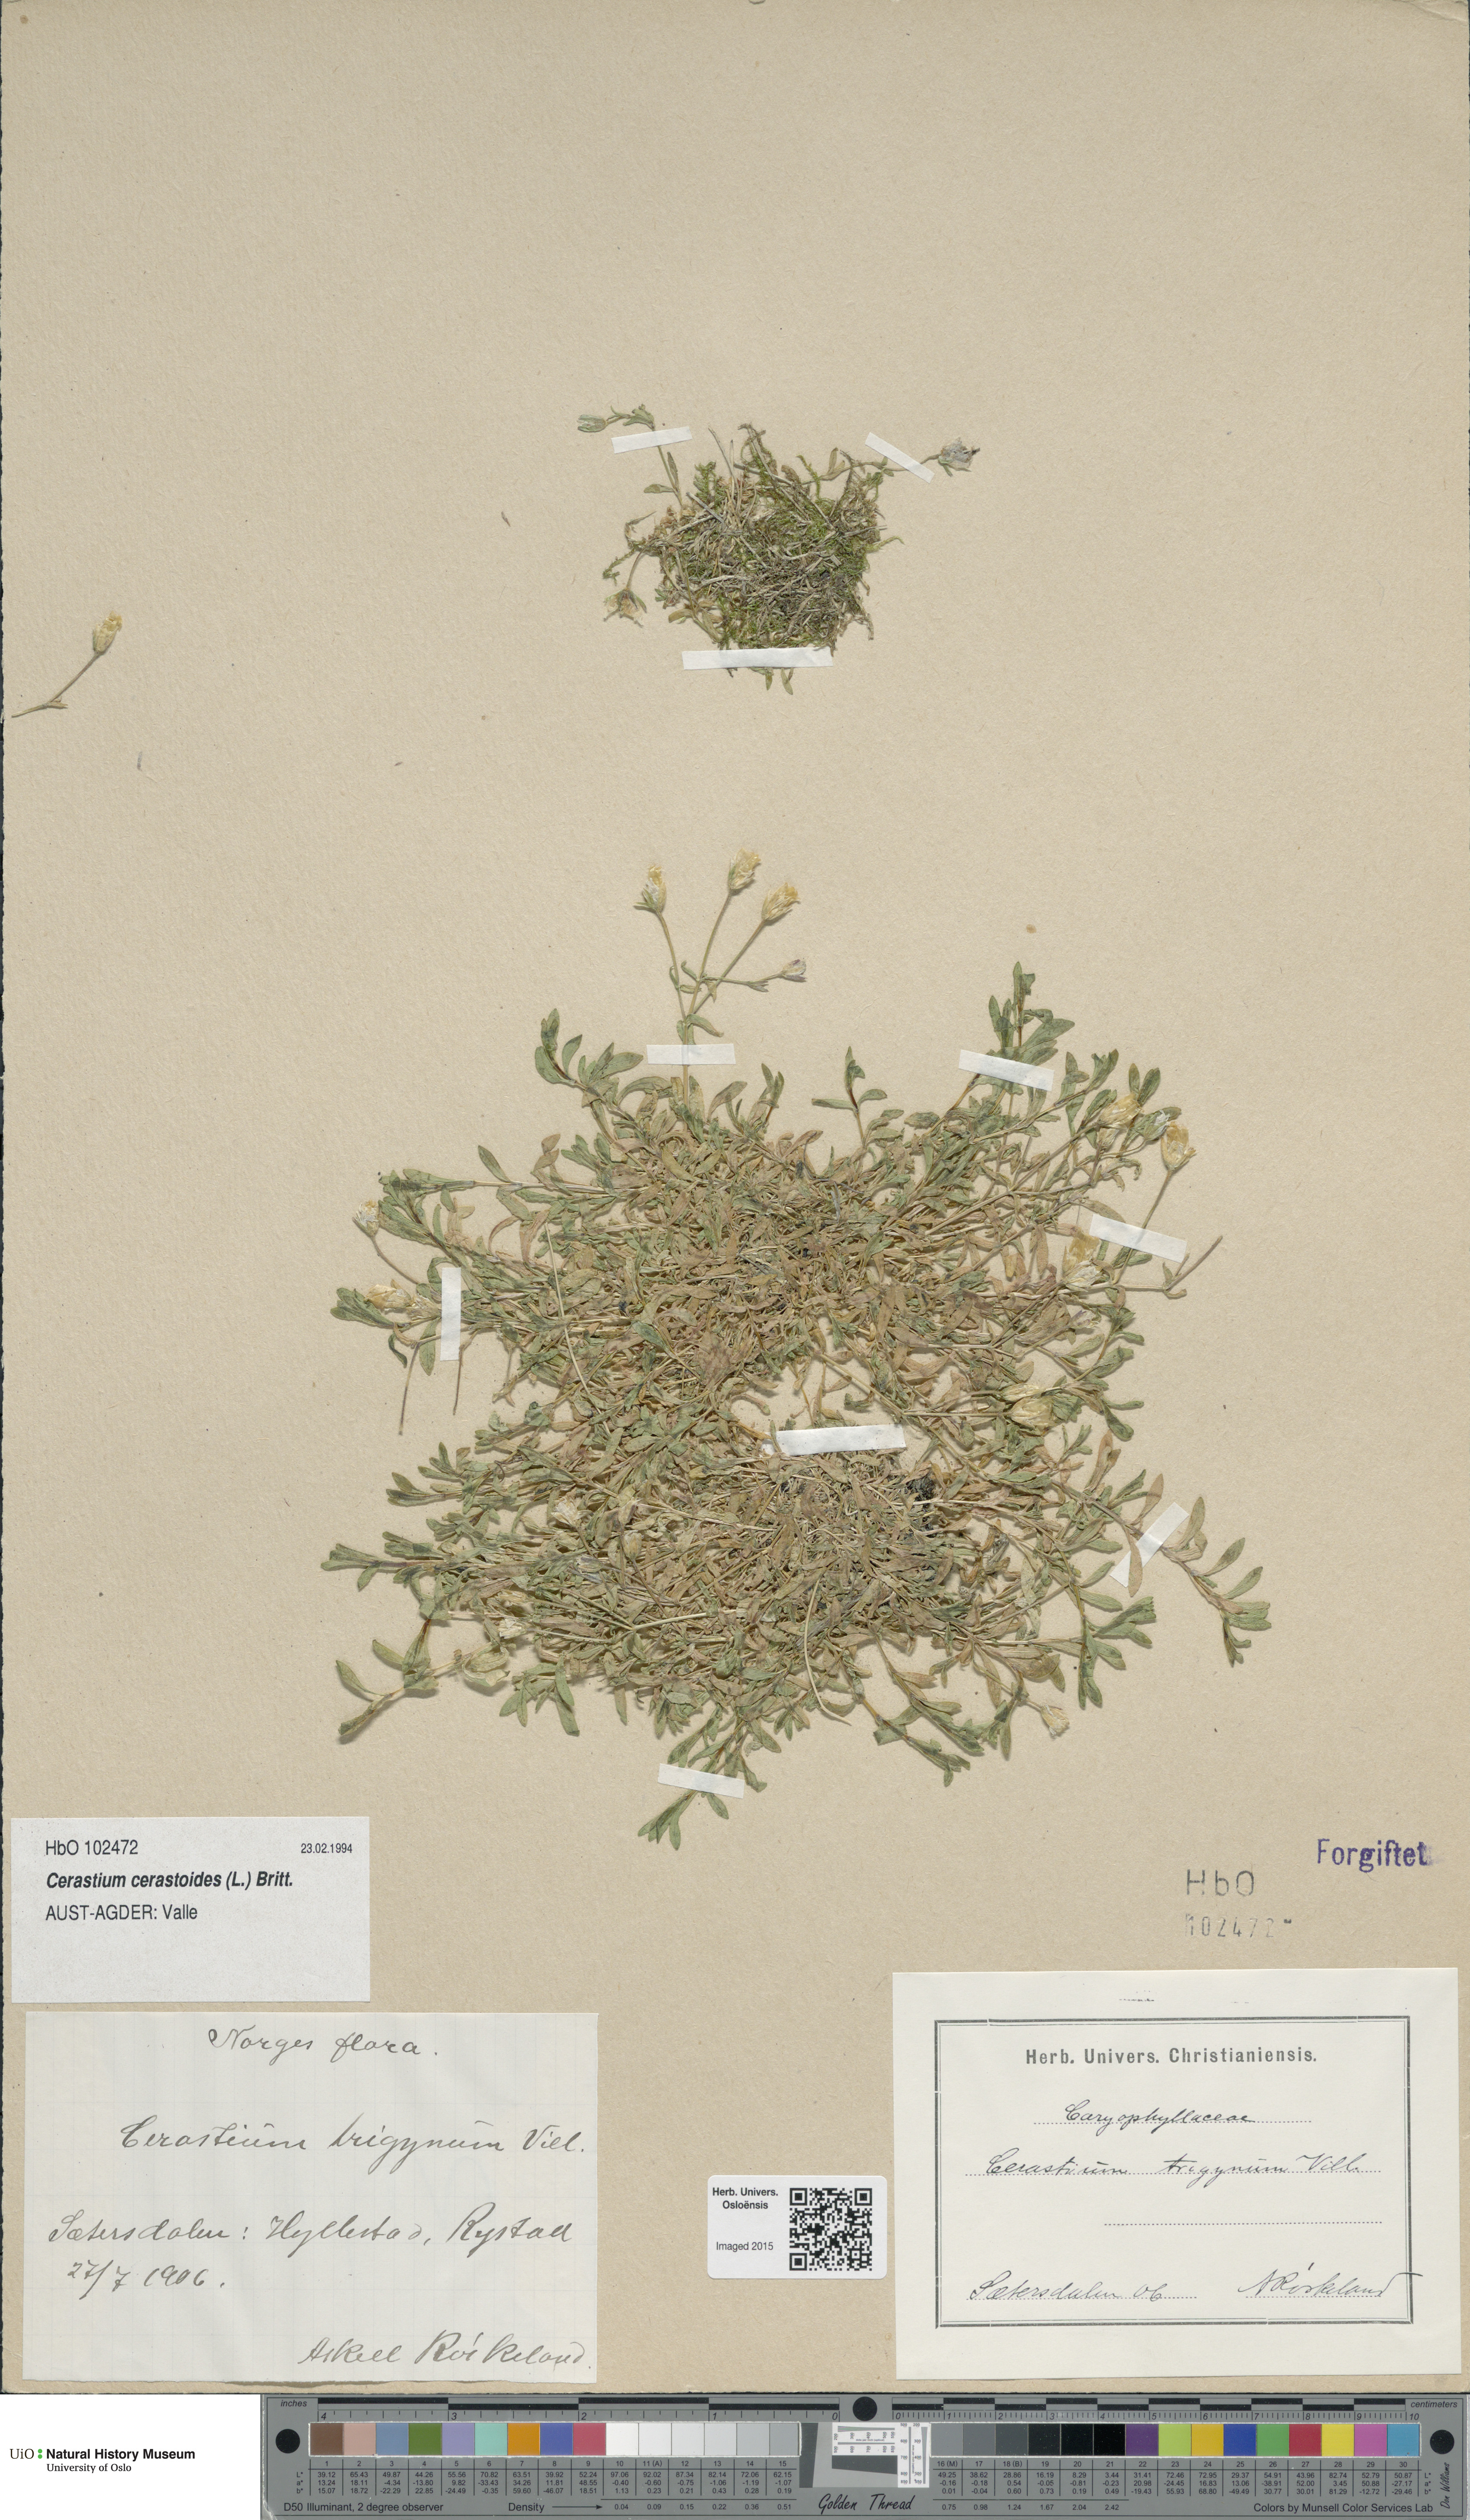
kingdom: Plantae
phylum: Tracheophyta
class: Magnoliopsida
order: Caryophyllales
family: Caryophyllaceae
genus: Dichodon
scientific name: Dichodon cerastoides
